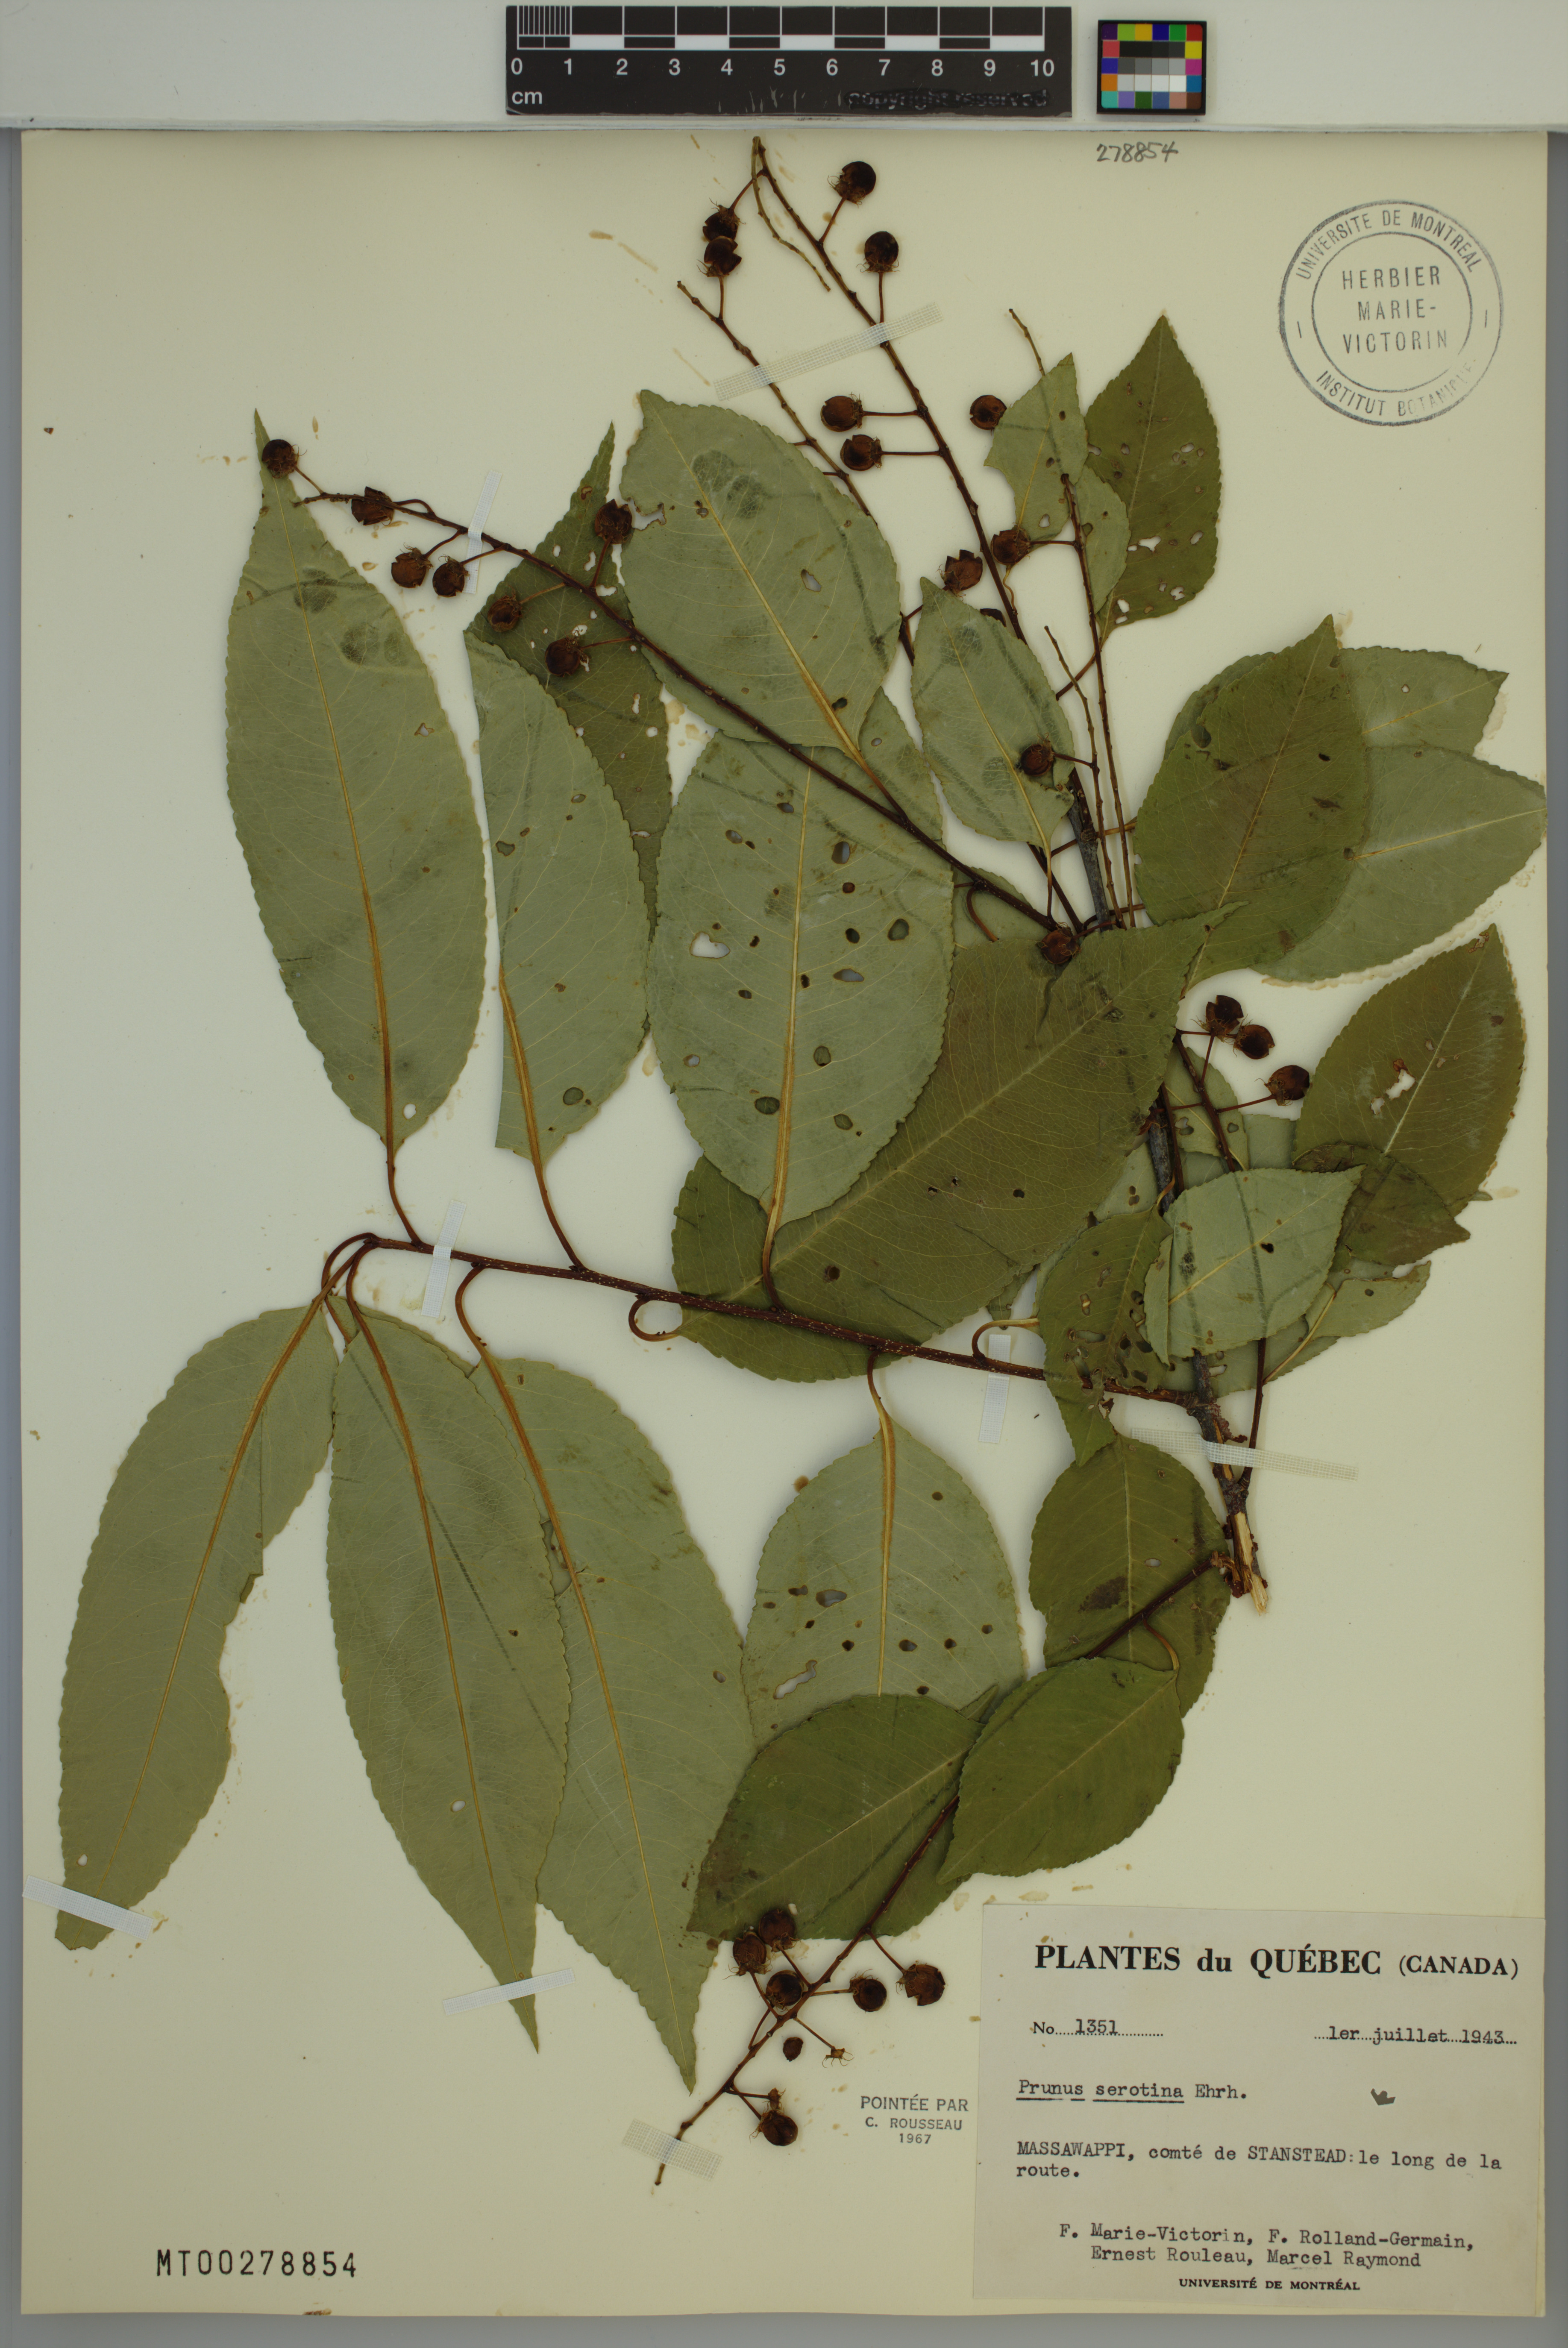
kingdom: Plantae
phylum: Tracheophyta
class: Magnoliopsida
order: Rosales
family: Rosaceae
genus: Prunus
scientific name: Prunus serotina
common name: Black cherry
